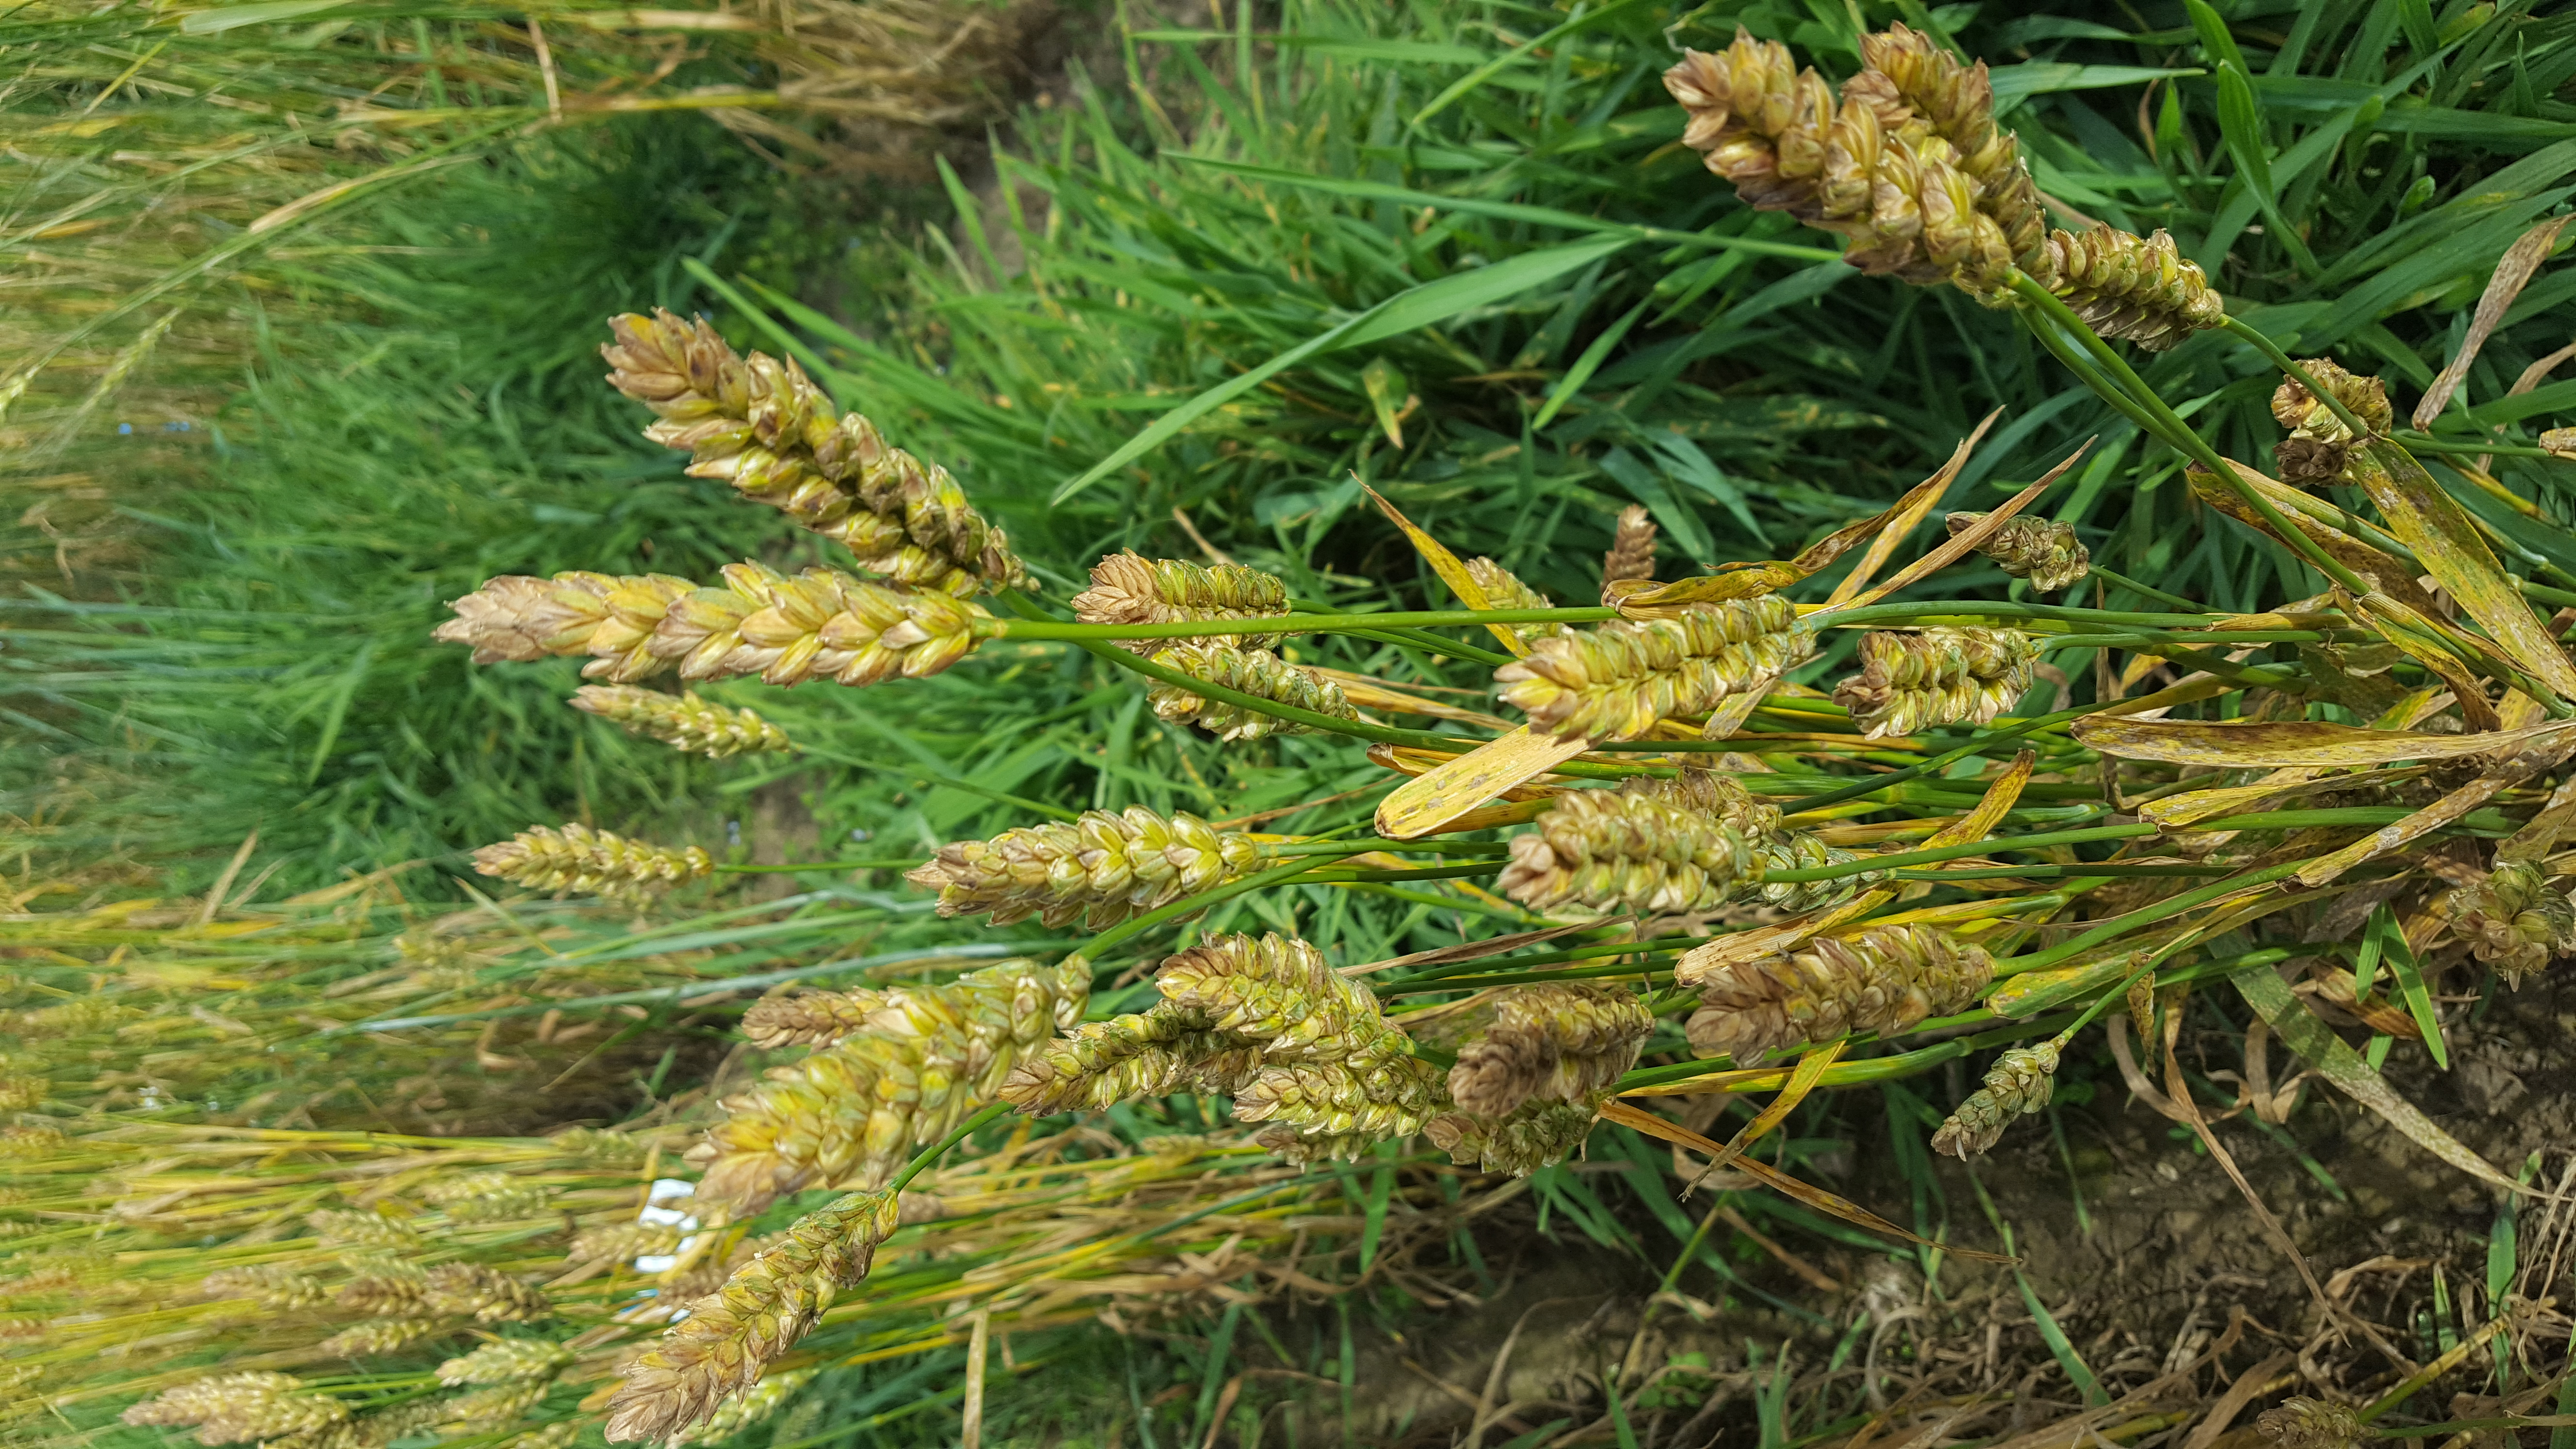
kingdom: Plantae
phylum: Tracheophyta
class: Liliopsida
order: Poales
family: Poaceae
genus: Triticum
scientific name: Triticum aestivum
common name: Common wheat
